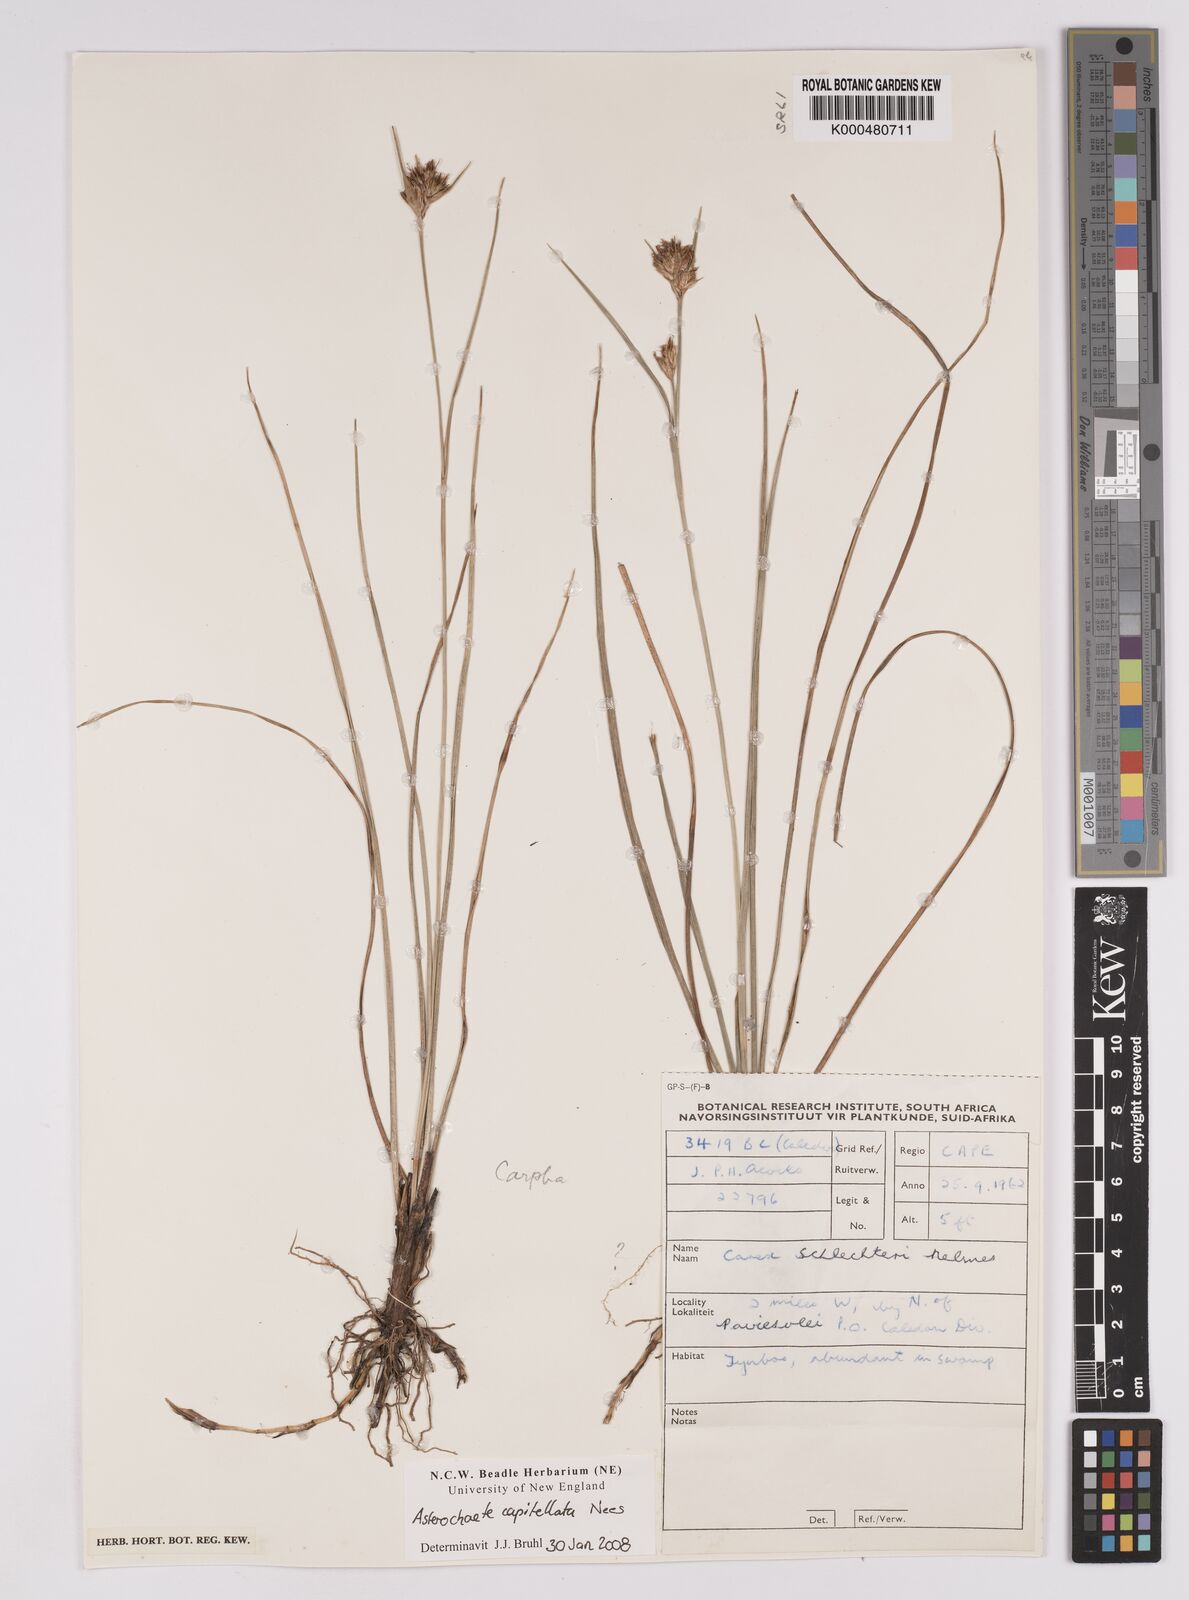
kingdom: Plantae
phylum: Tracheophyta
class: Liliopsida
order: Poales
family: Cyperaceae
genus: Carpha
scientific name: Carpha capitellata
